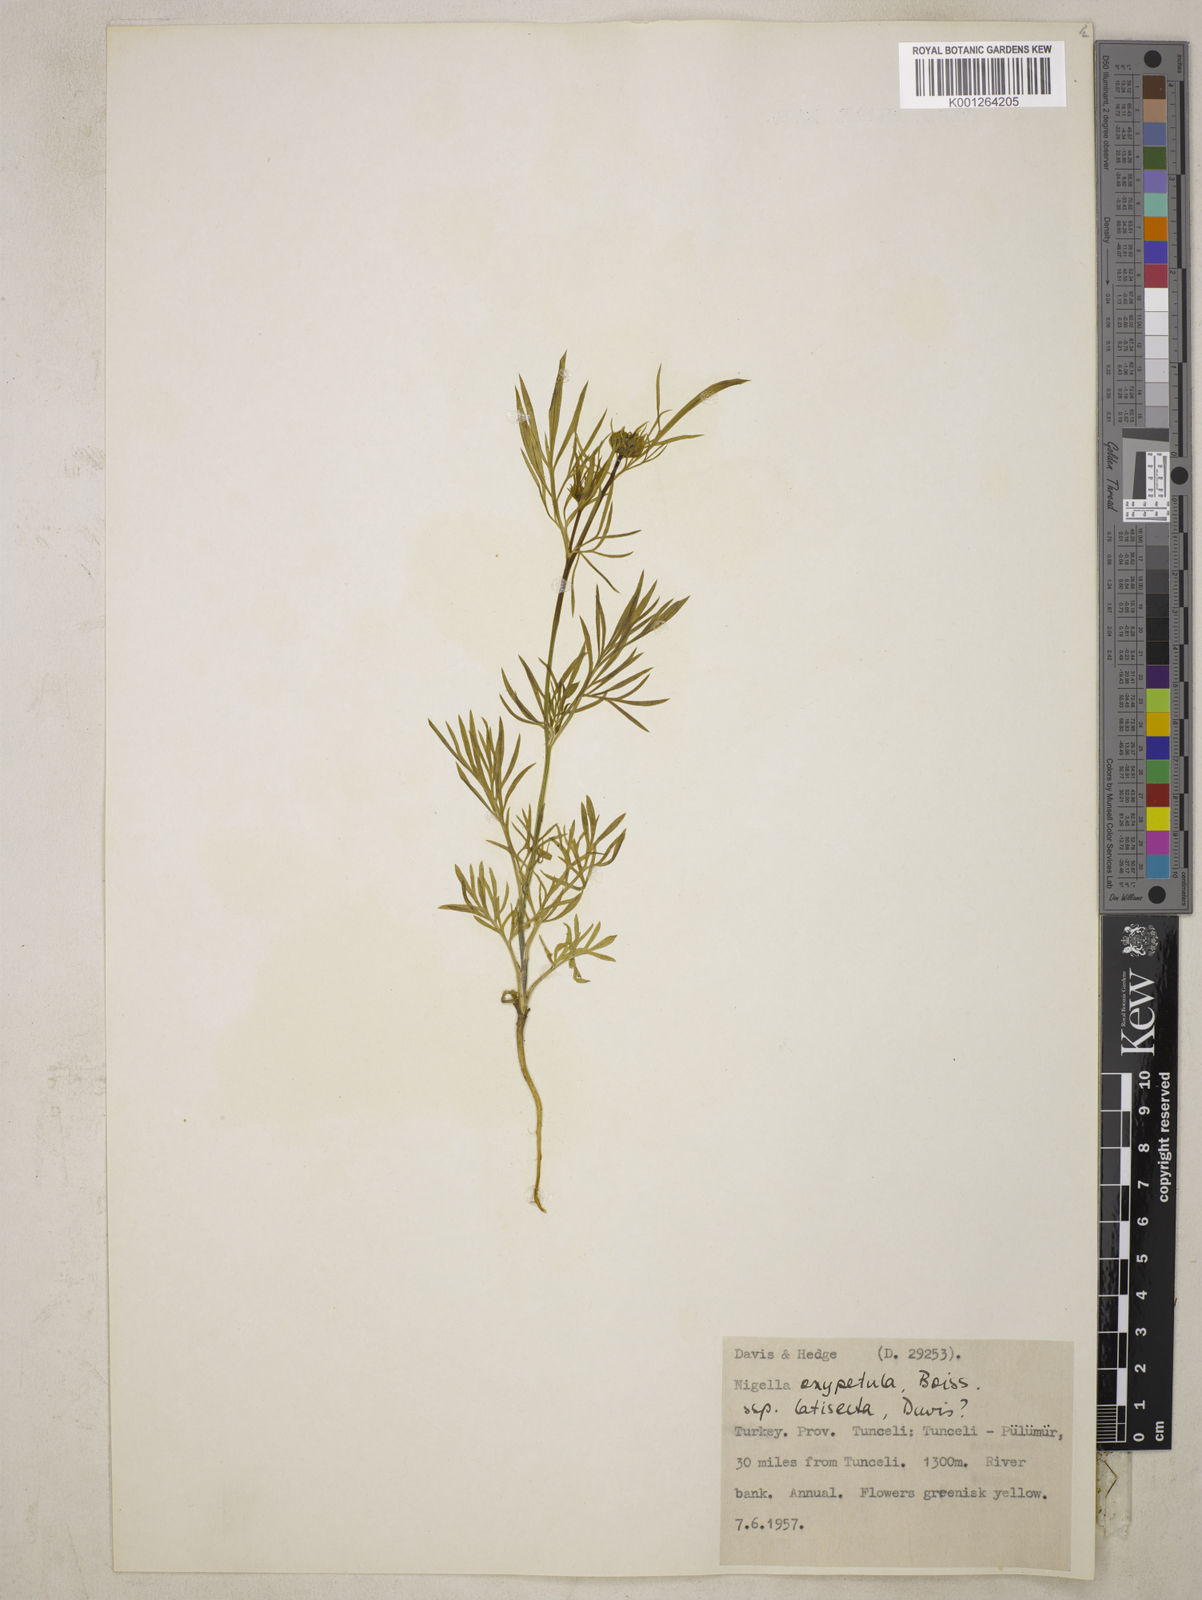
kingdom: Plantae
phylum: Tracheophyta
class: Magnoliopsida
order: Ranunculales
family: Ranunculaceae
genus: Nigella
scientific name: Nigella oxypetala
